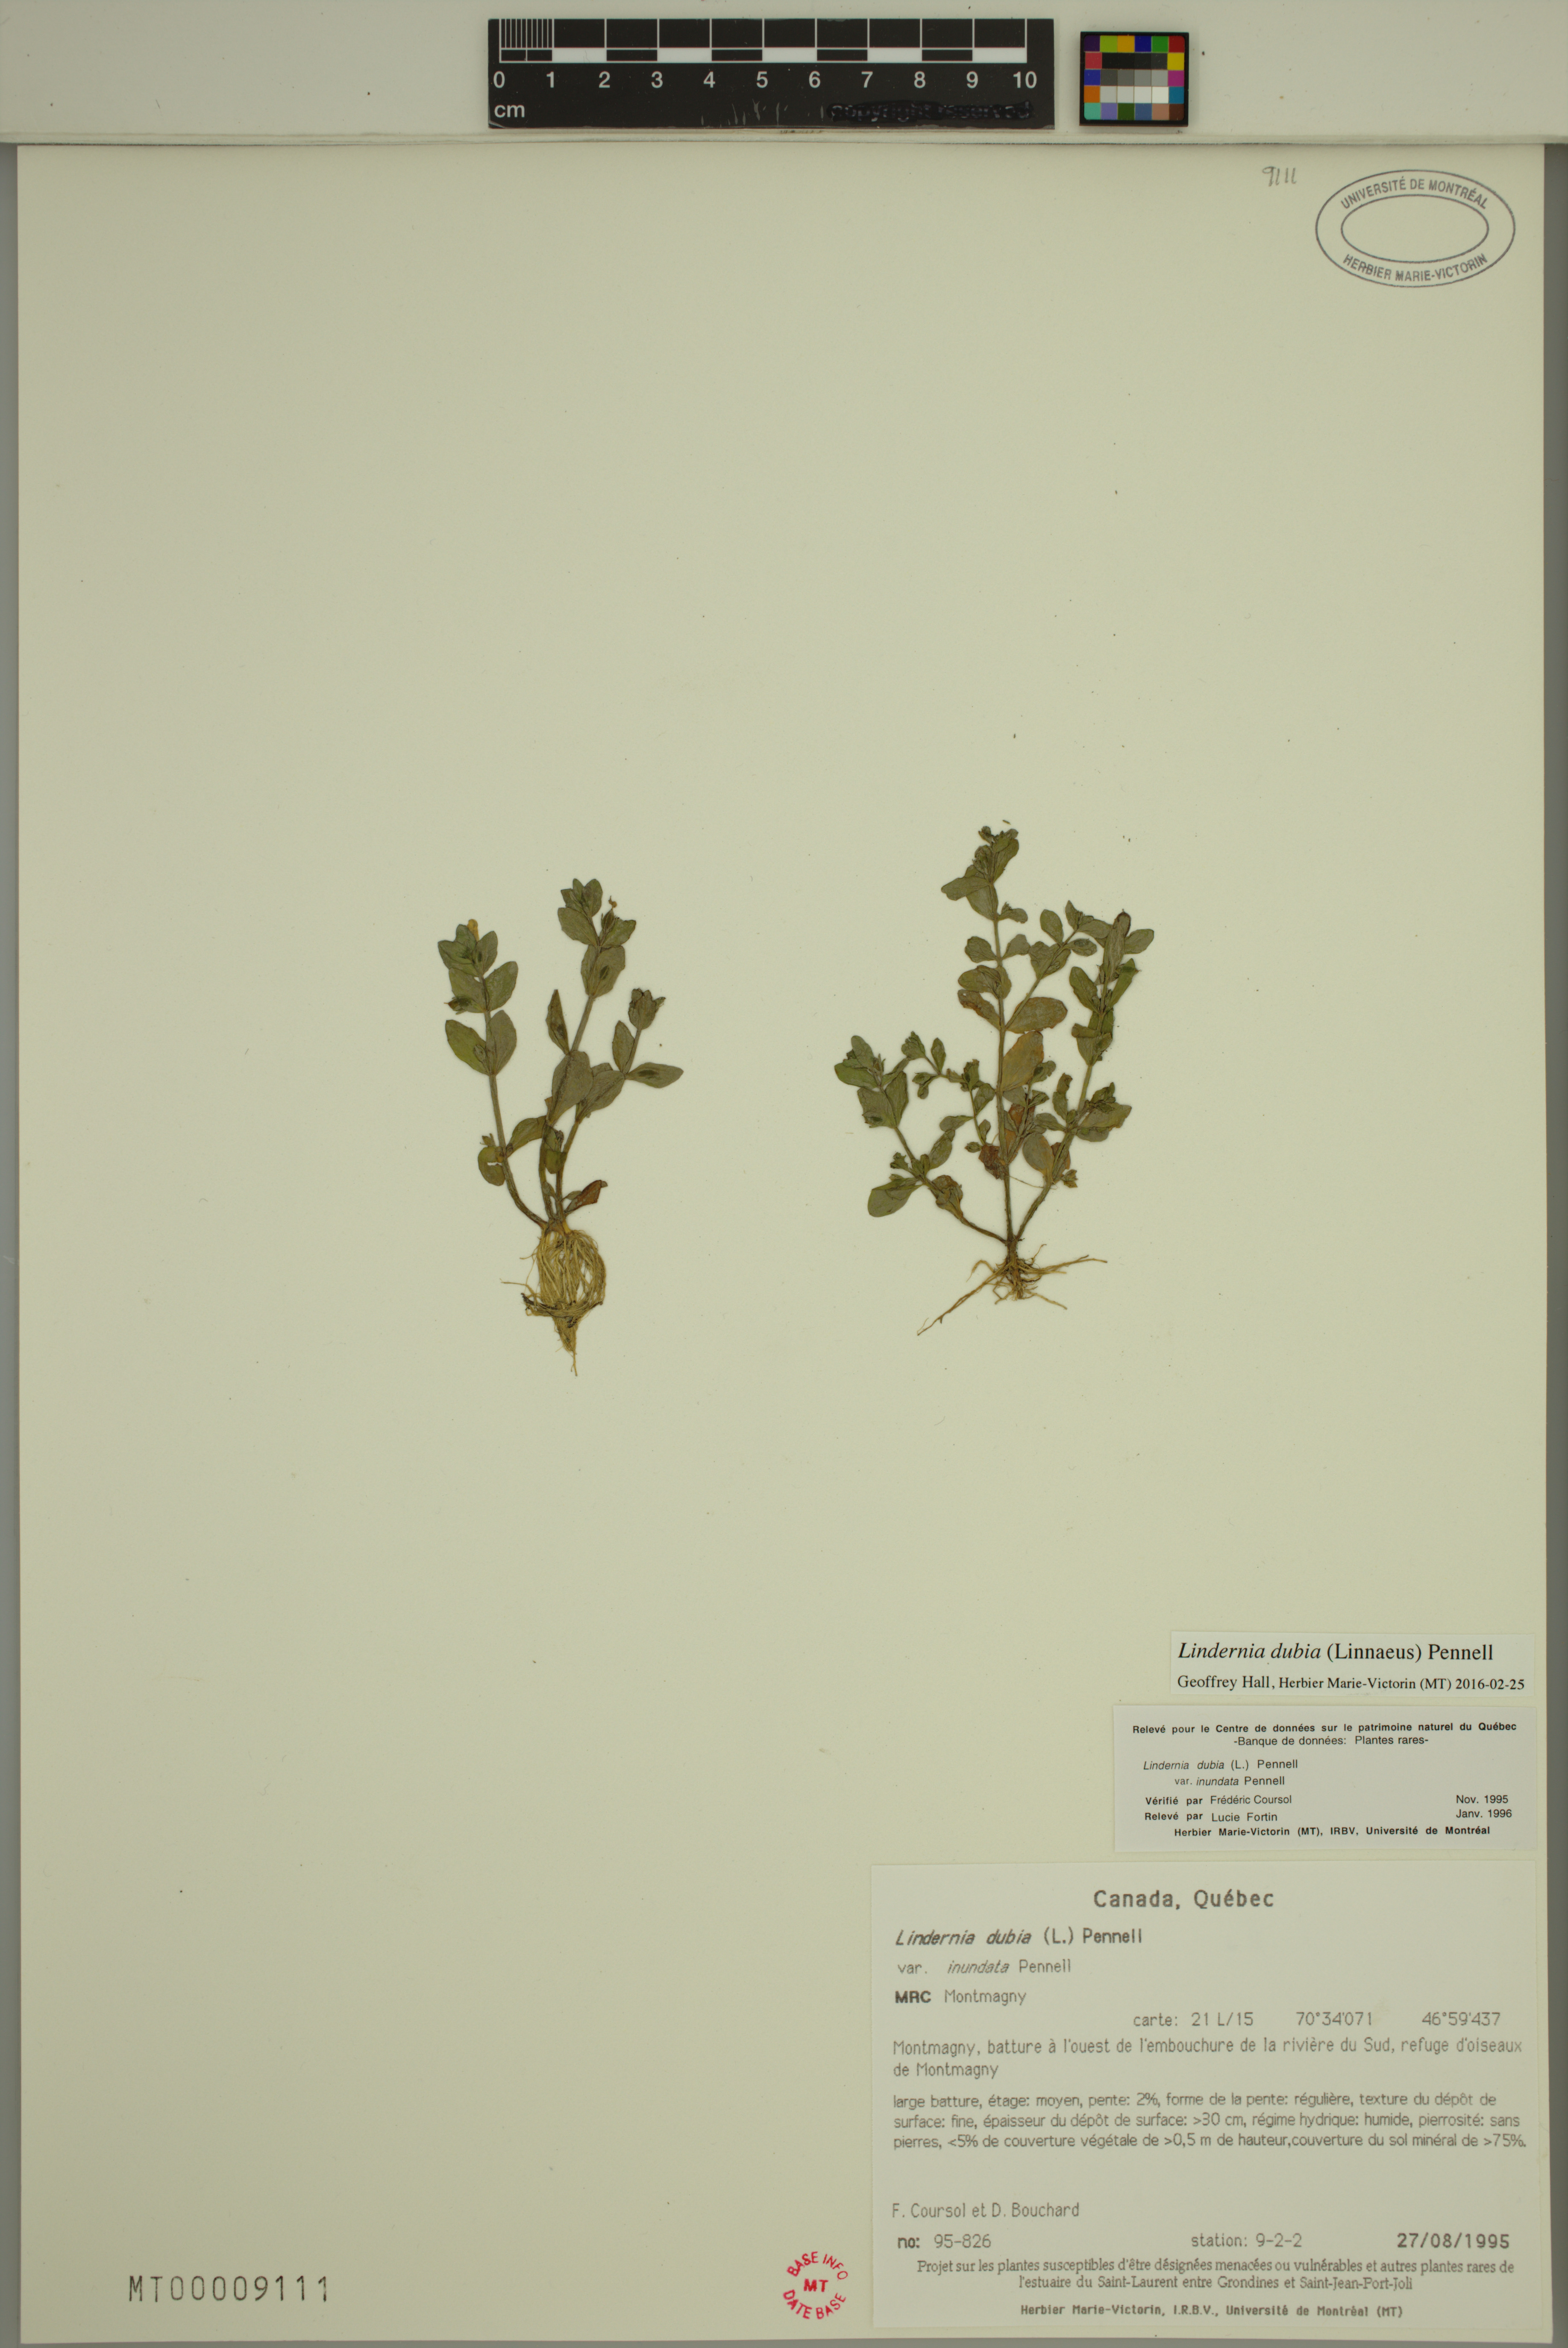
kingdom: Plantae
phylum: Tracheophyta
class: Magnoliopsida
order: Lamiales
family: Linderniaceae
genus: Lindernia
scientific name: Lindernia dubia
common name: Annual false pimpernel
